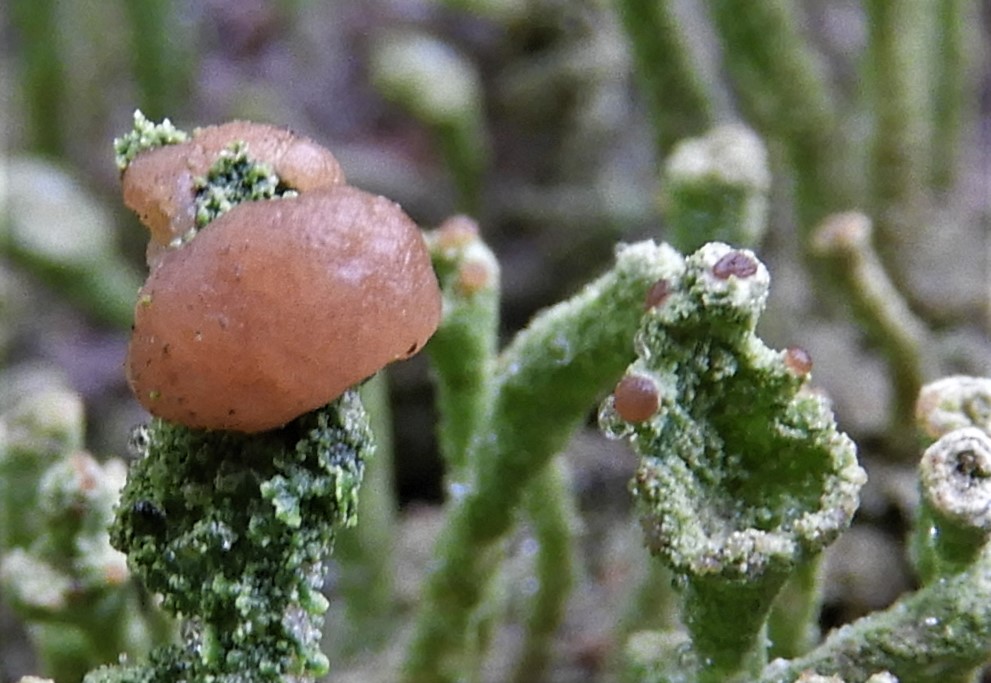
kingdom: Fungi
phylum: Ascomycota
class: Lecanoromycetes
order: Lecanorales
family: Cladoniaceae
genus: Cladonia
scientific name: Cladonia ramulosa
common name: kliddet bægerlav
